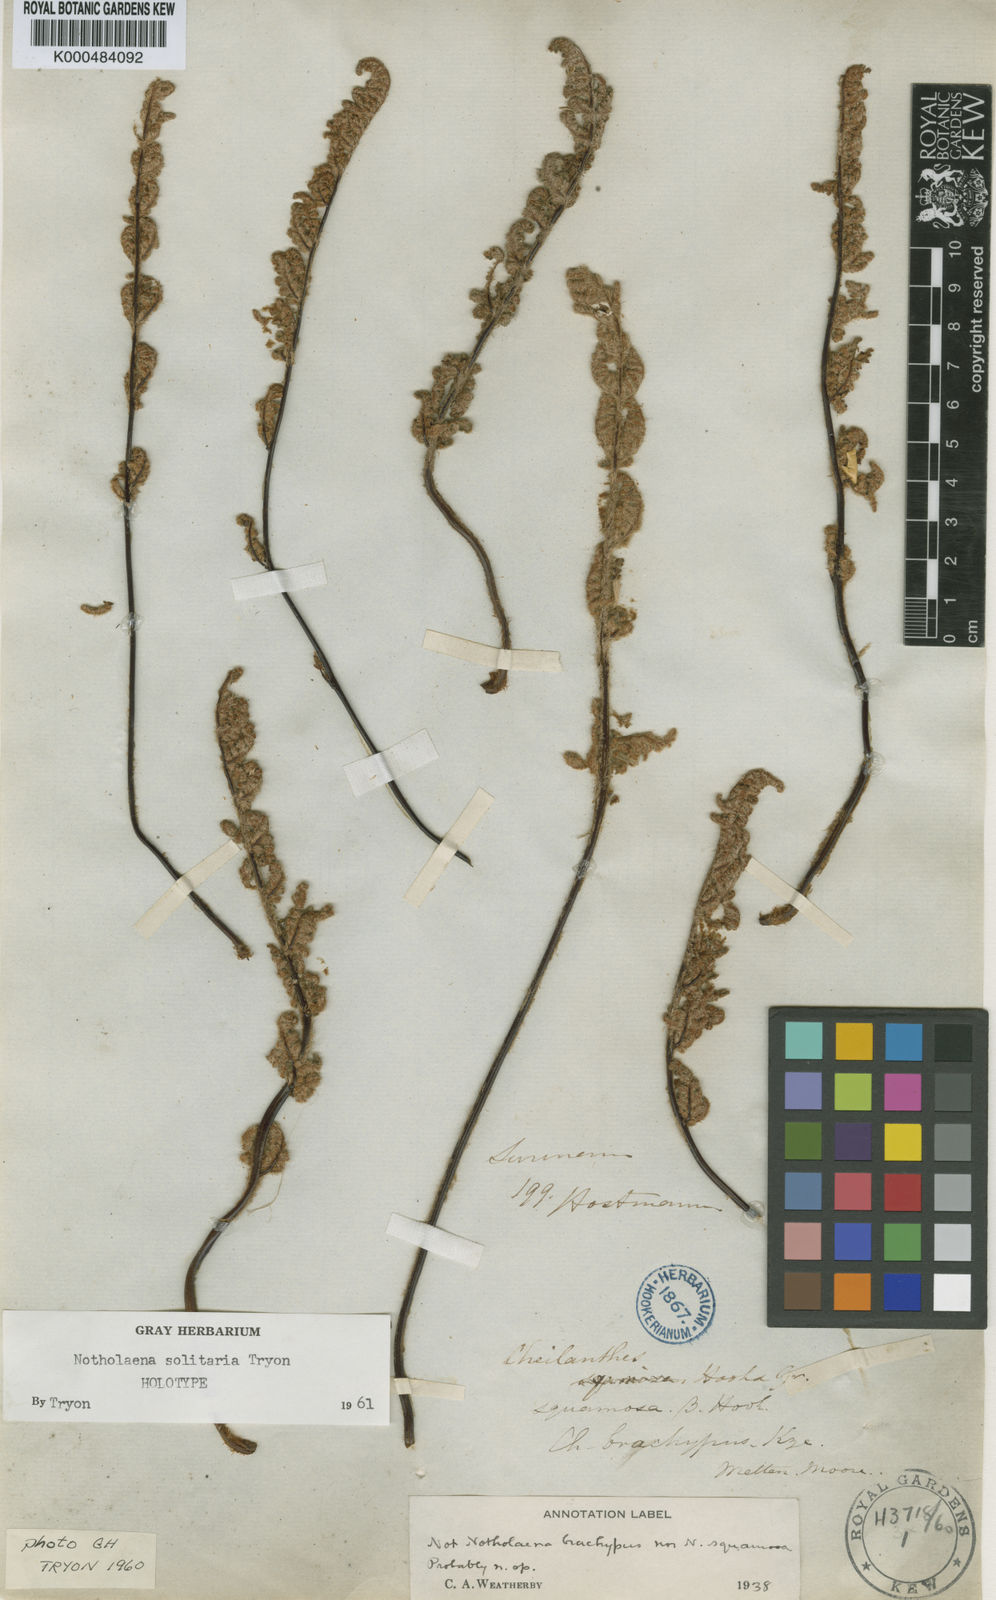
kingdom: Plantae
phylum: Tracheophyta
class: Polypodiopsida
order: Polypodiales
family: Pteridaceae
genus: Cheilanthes
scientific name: Cheilanthes
